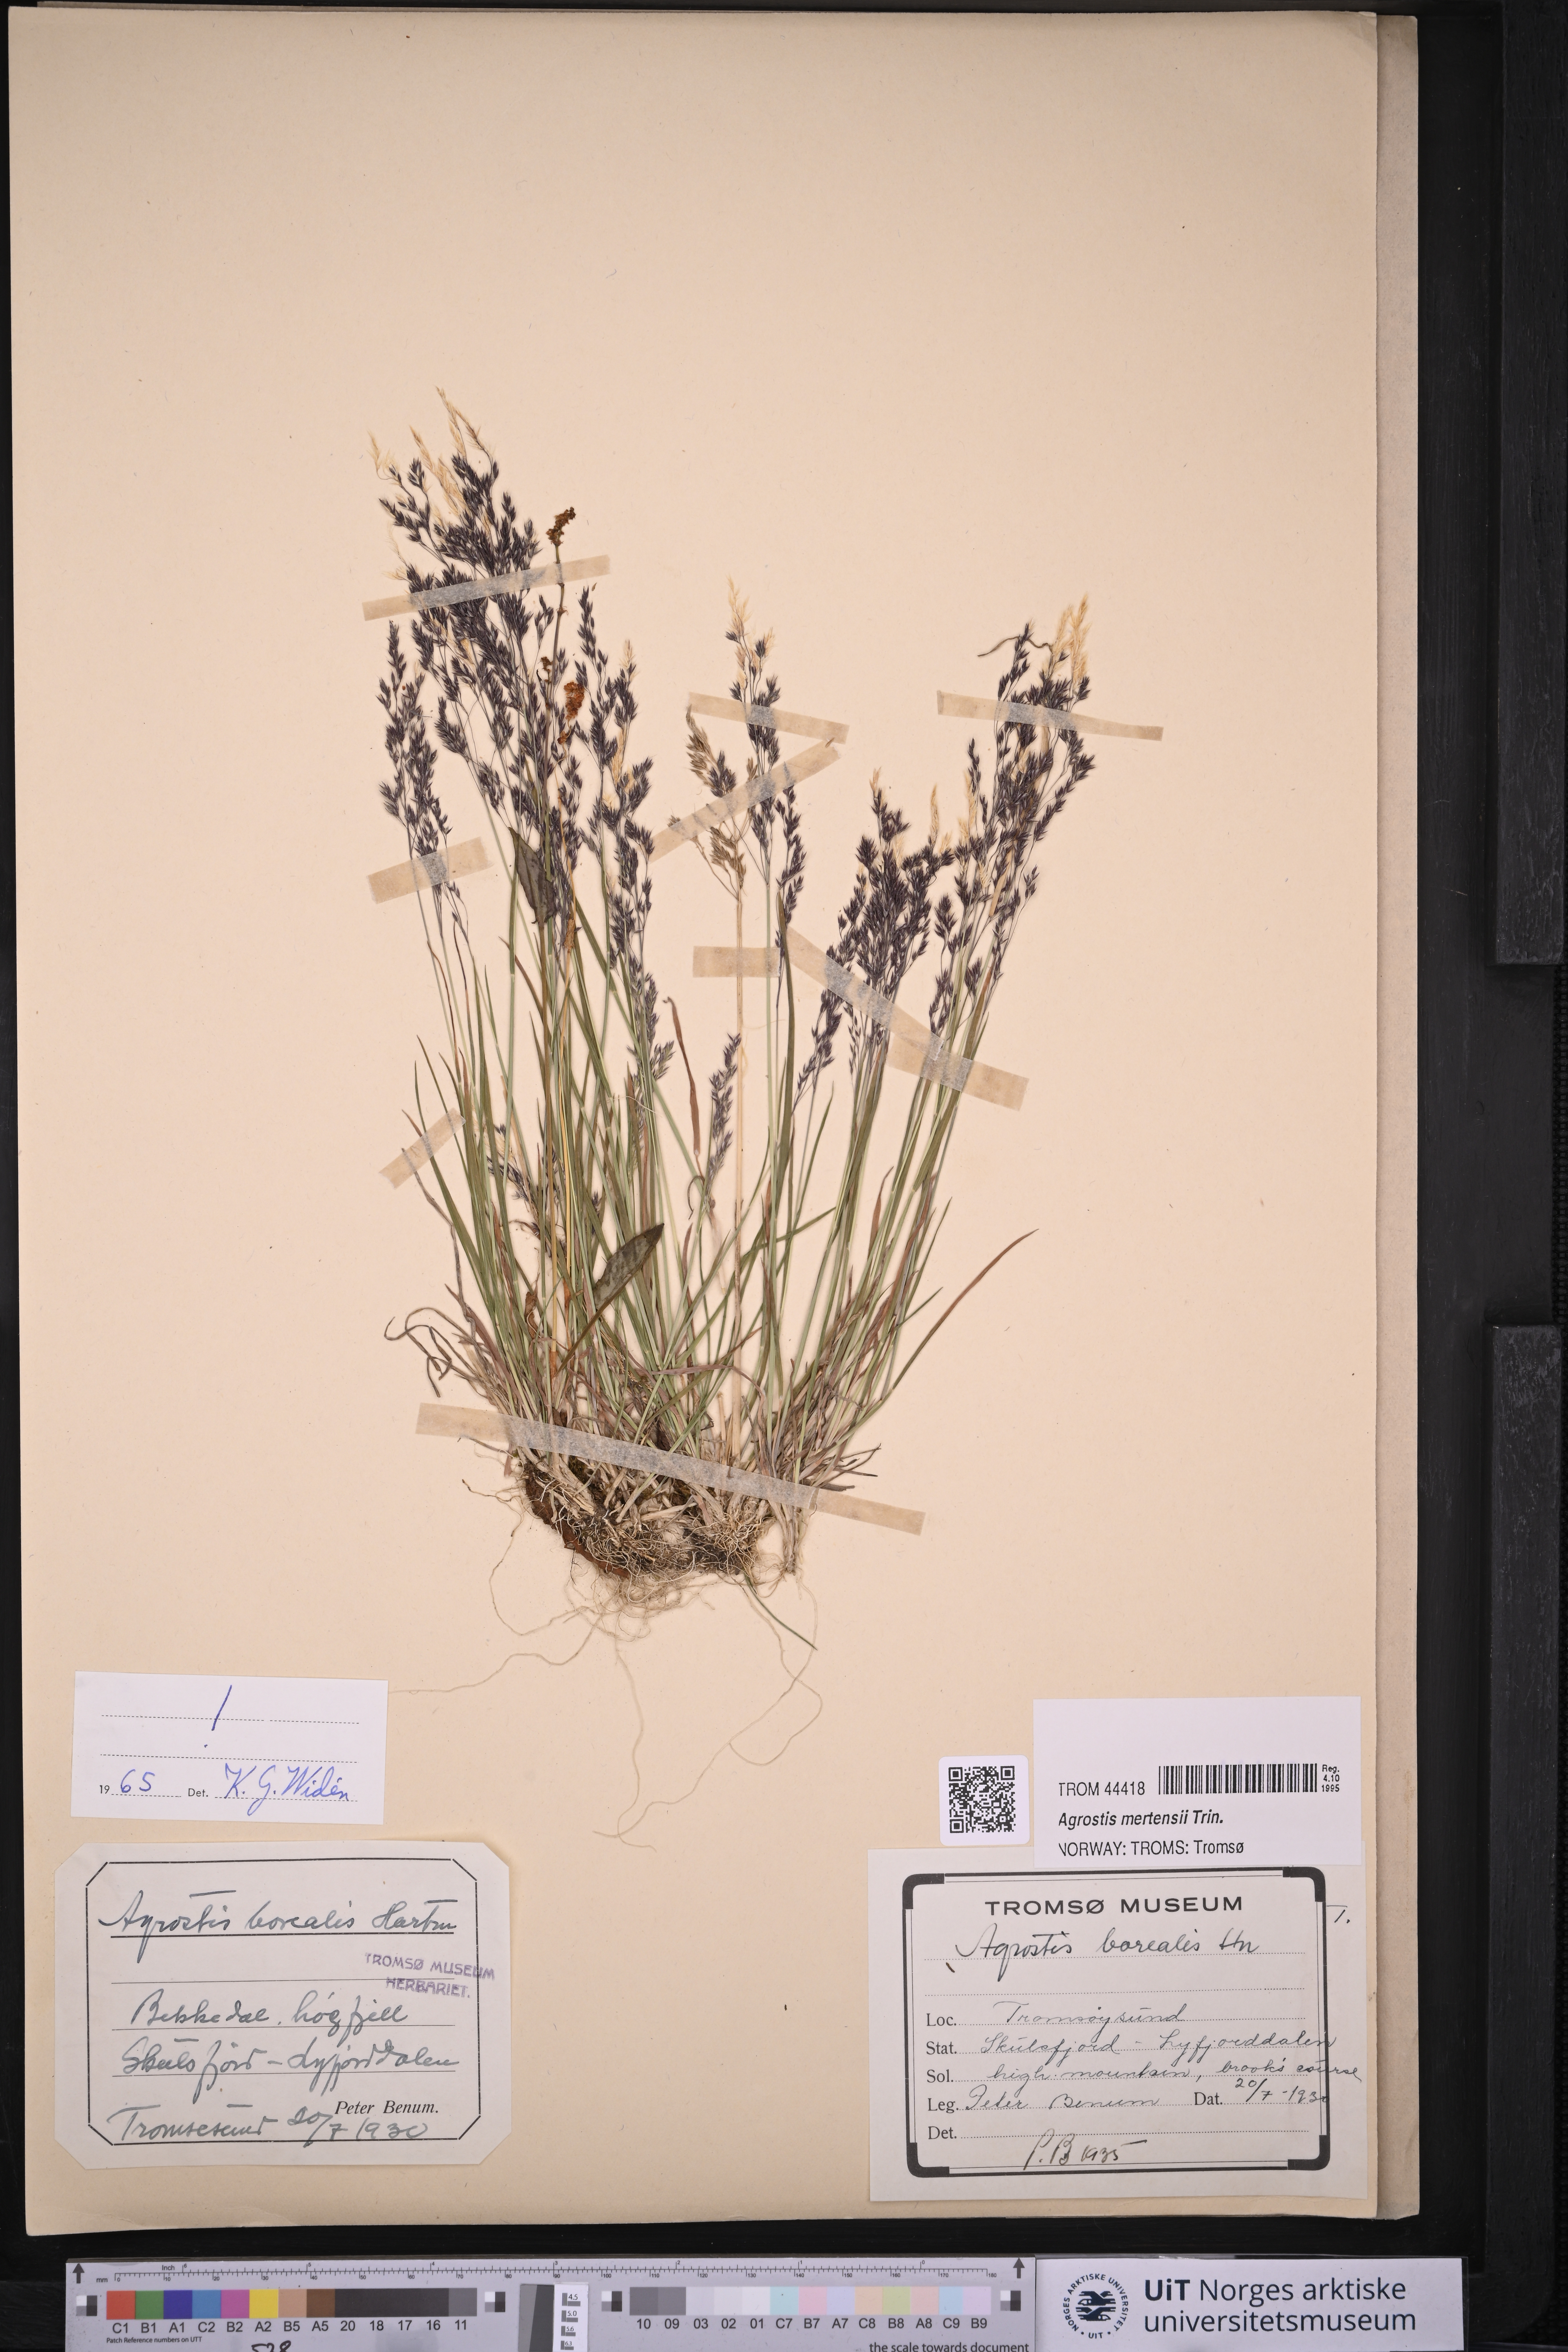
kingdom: Plantae
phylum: Tracheophyta
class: Liliopsida
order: Poales
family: Poaceae
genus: Agrostis
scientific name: Agrostis mertensii
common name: Northern bent
